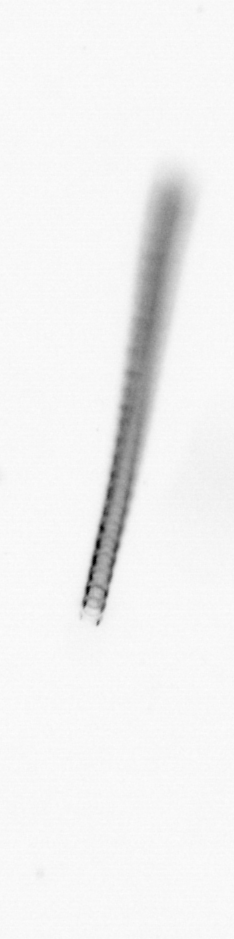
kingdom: Chromista
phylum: Ochrophyta
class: Bacillariophyceae
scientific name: Bacillariophyceae
